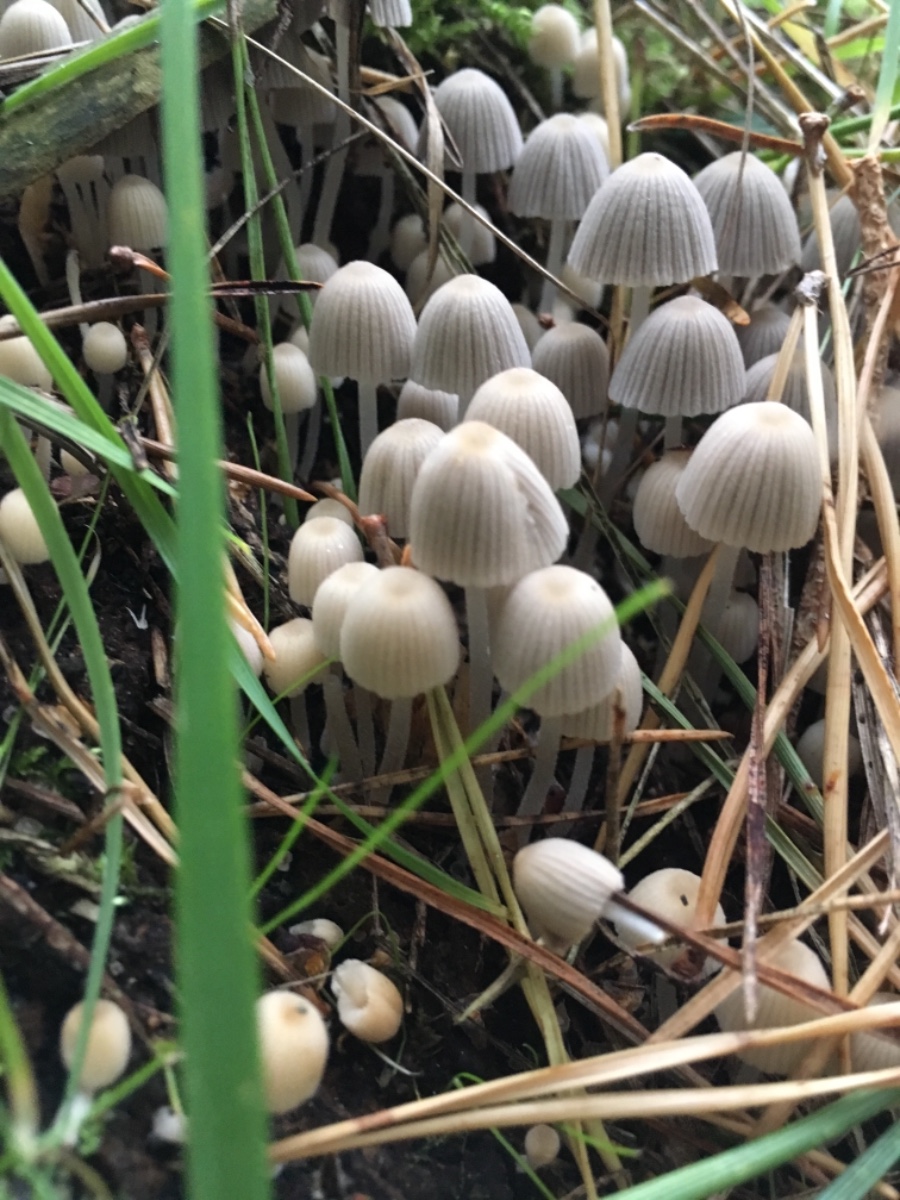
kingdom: Fungi
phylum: Basidiomycota
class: Agaricomycetes
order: Agaricales
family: Psathyrellaceae
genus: Coprinellus
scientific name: Coprinellus disseminatus
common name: bredsået blækhat
